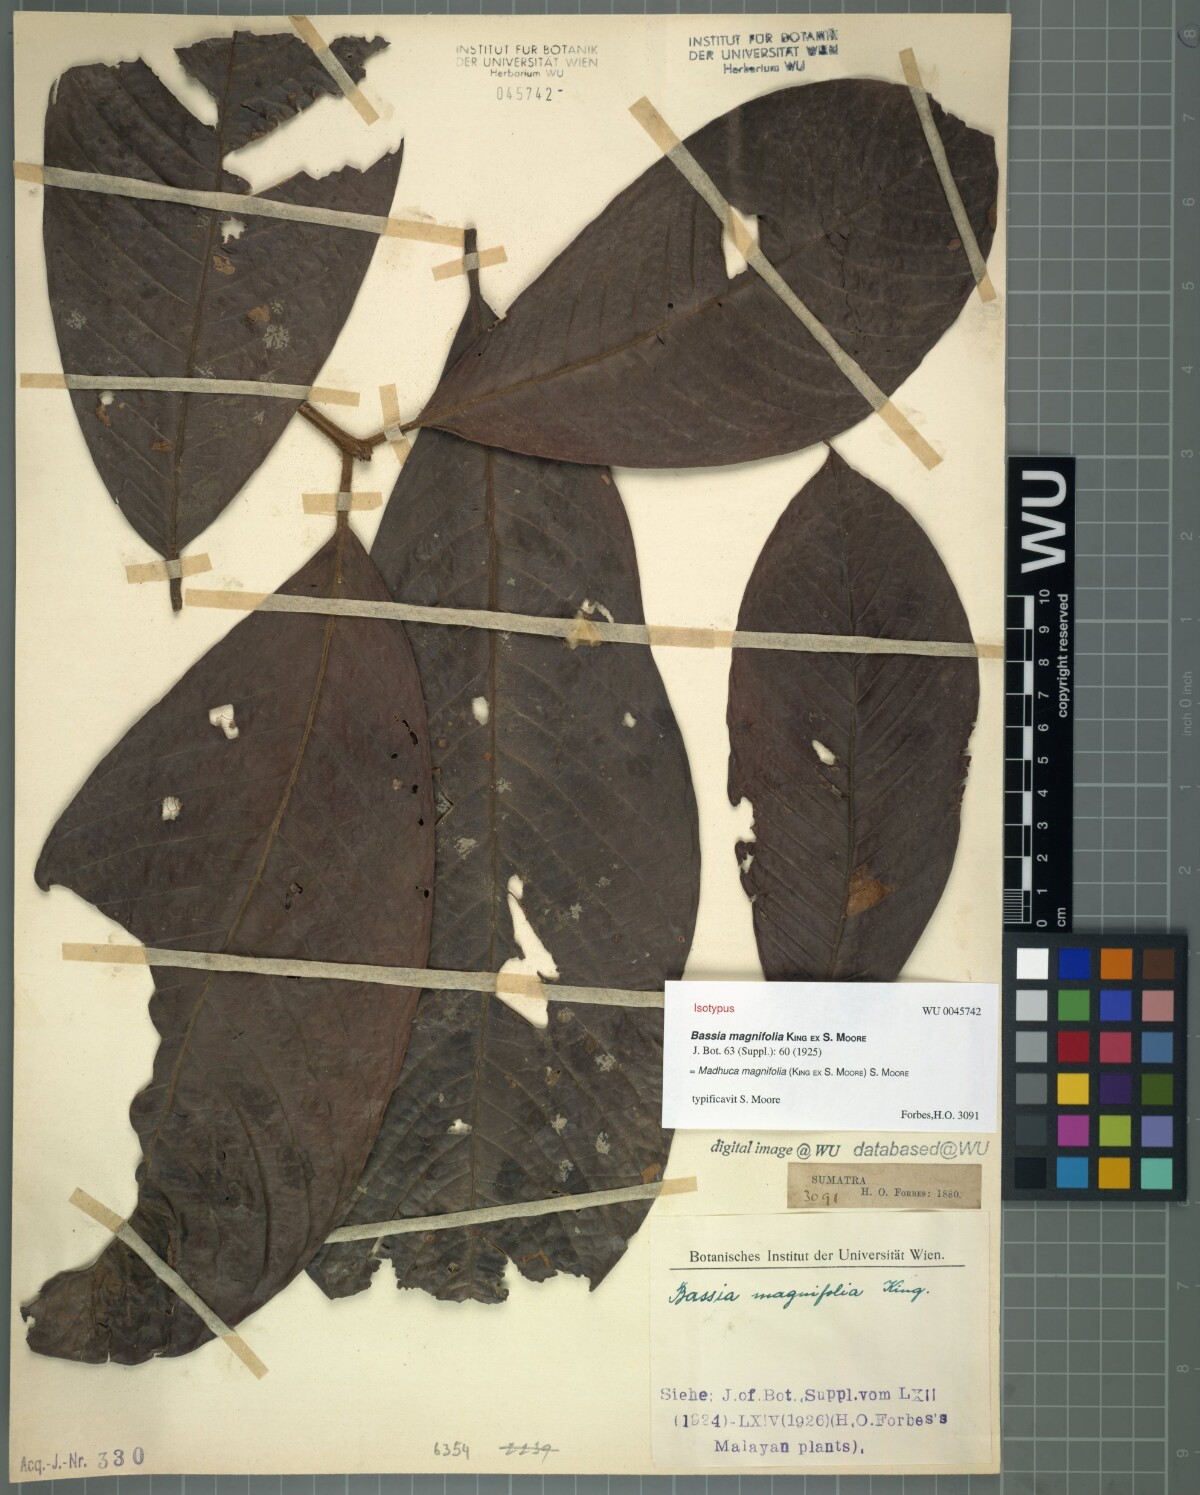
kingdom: Plantae
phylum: Tracheophyta
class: Magnoliopsida
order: Ericales
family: Sapotaceae
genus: Madhuca
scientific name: Madhuca magnifolia
